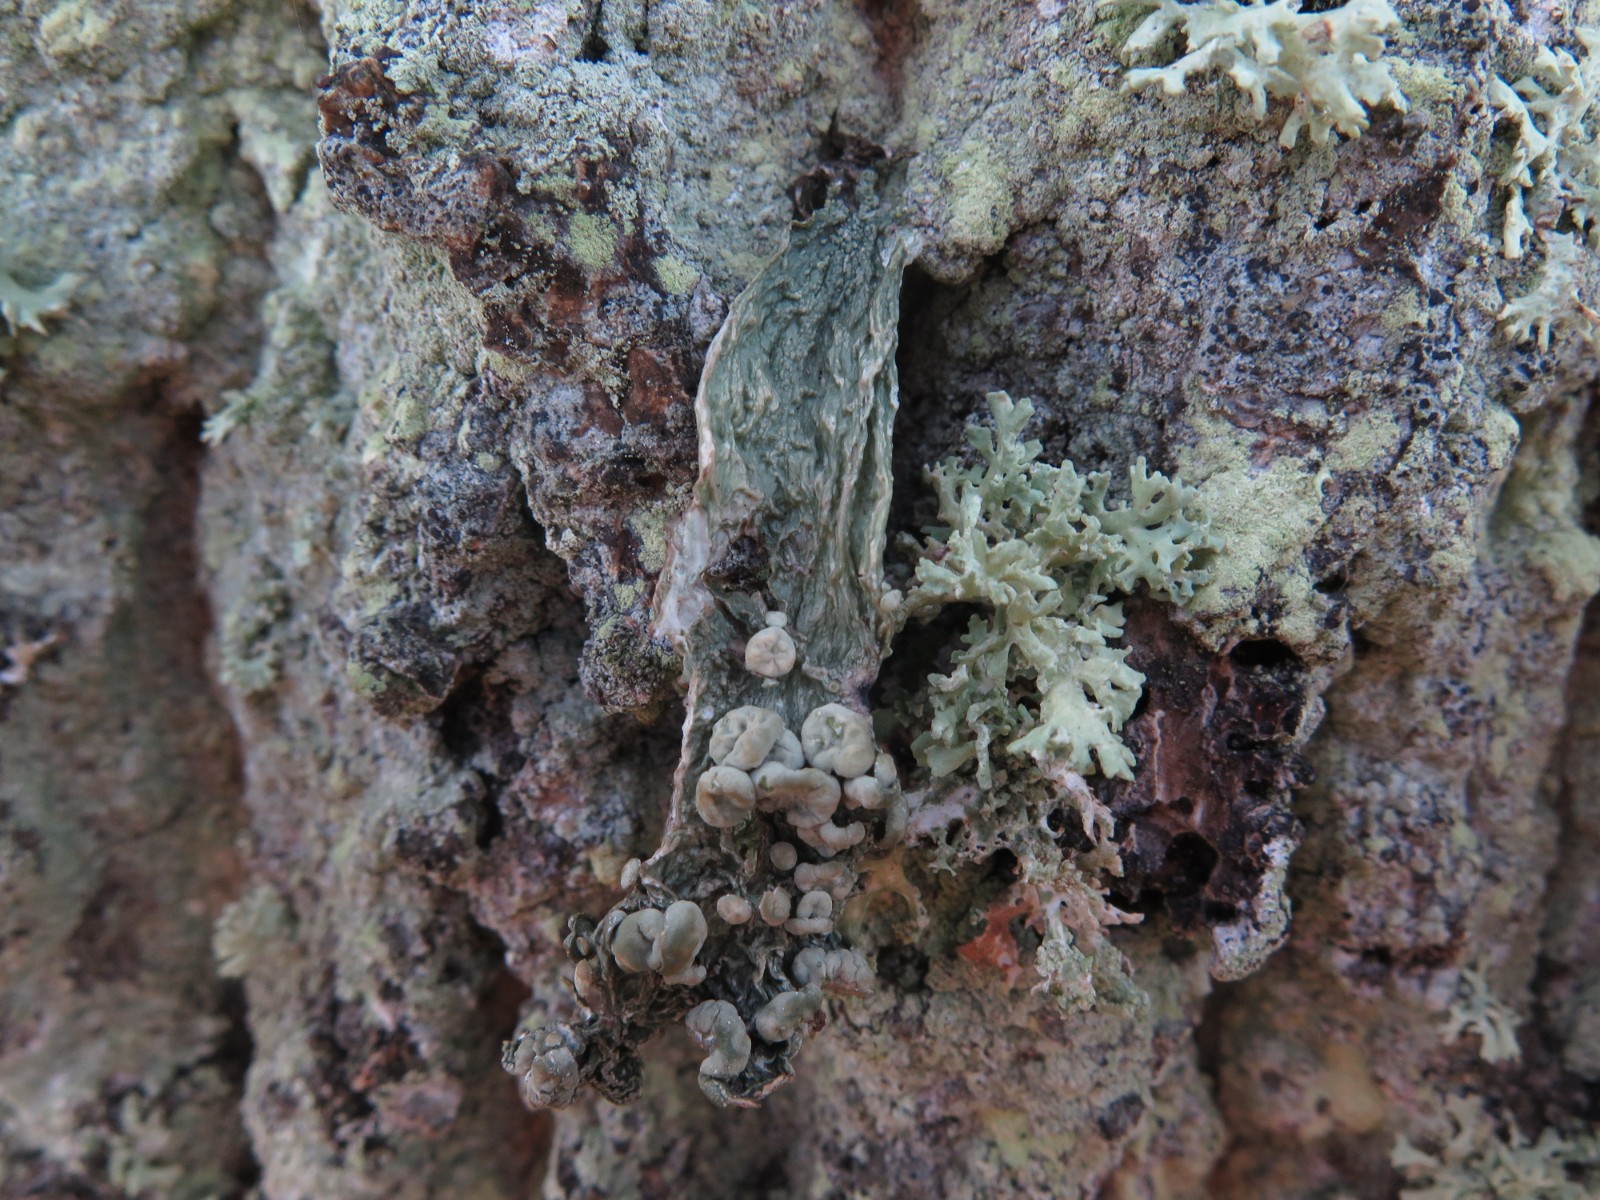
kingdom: Fungi
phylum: Ascomycota
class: Lecanoromycetes
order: Lecanorales
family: Ramalinaceae
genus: Ramalina
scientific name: Ramalina fraxinea
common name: stor grenlav
